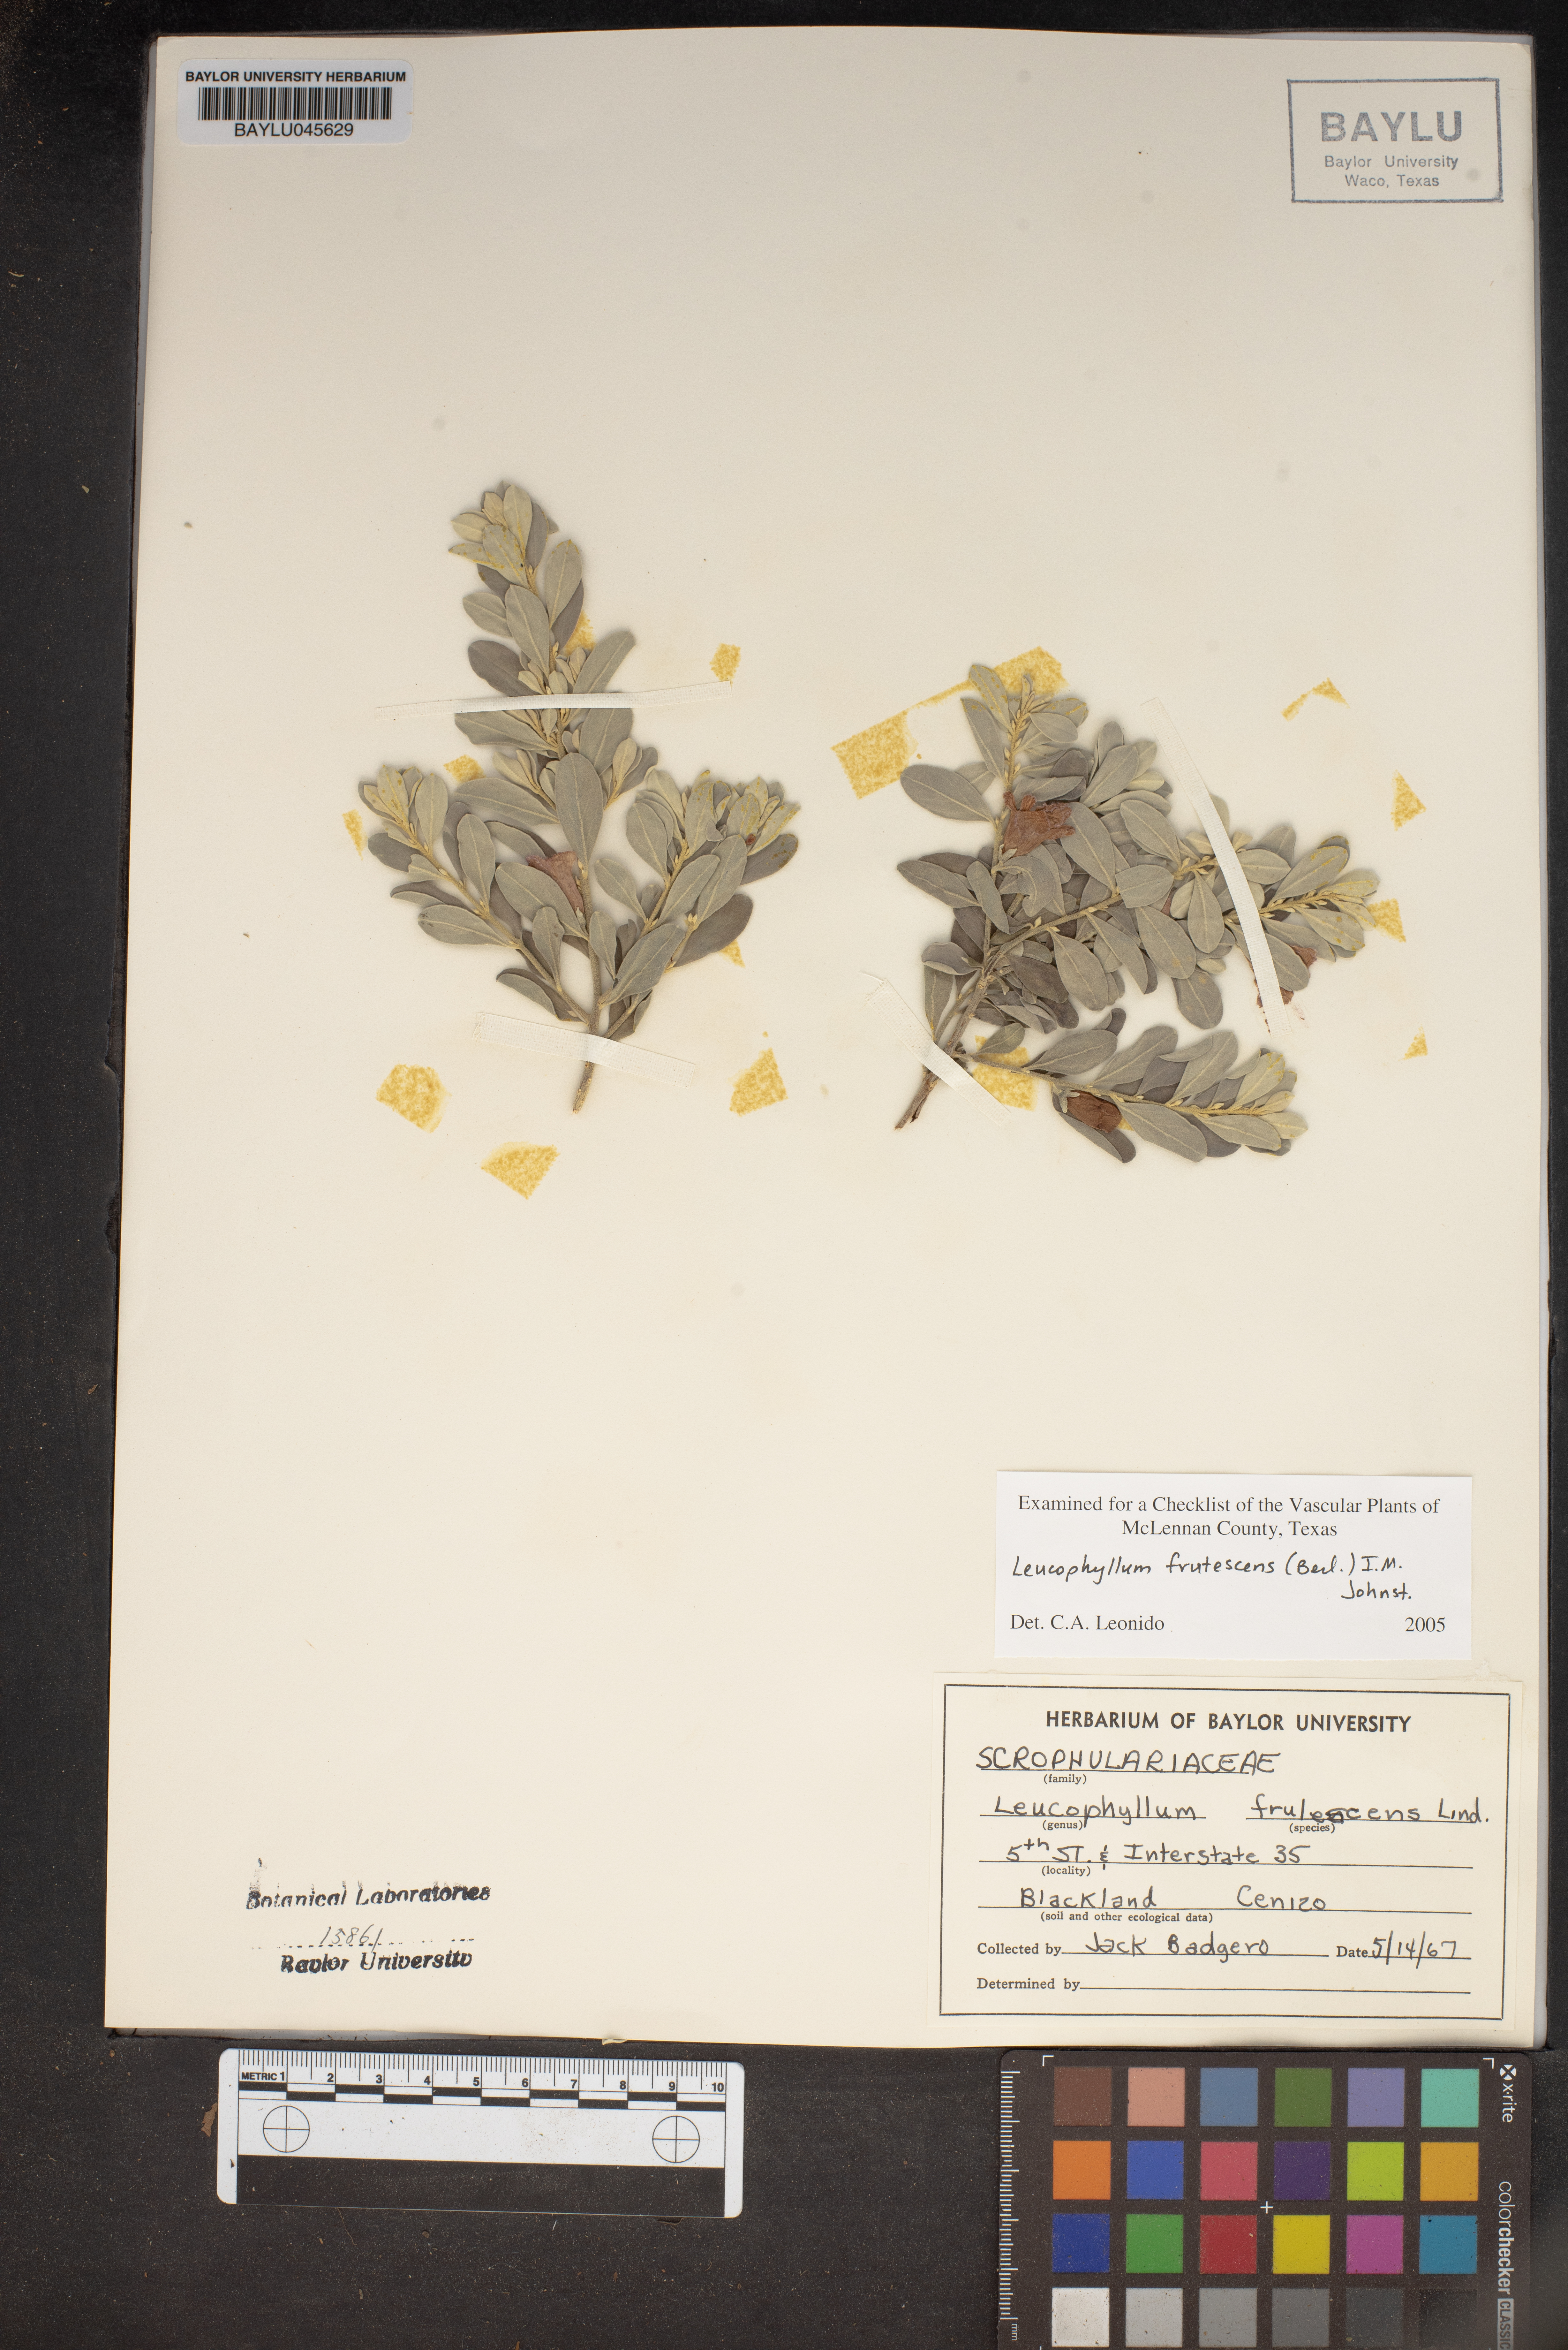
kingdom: Plantae
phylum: Tracheophyta
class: Magnoliopsida
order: Lamiales
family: Scrophulariaceae
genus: Leucophyllum
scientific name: Leucophyllum frutescens
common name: Texas silverleaf
